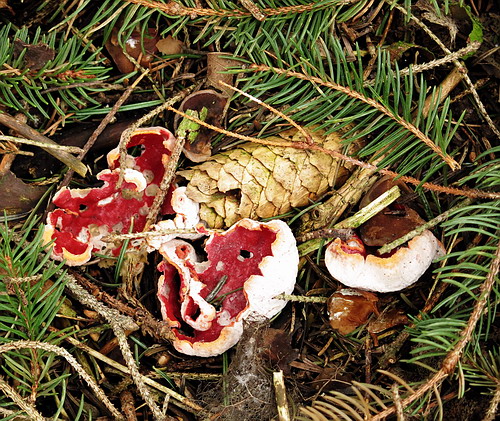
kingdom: Fungi
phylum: Ascomycota
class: Pezizomycetes
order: Pezizales
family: Sarcoscyphaceae
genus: Sarcoscypha
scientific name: Sarcoscypha austriaca
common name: krølhåret pragtbæger
